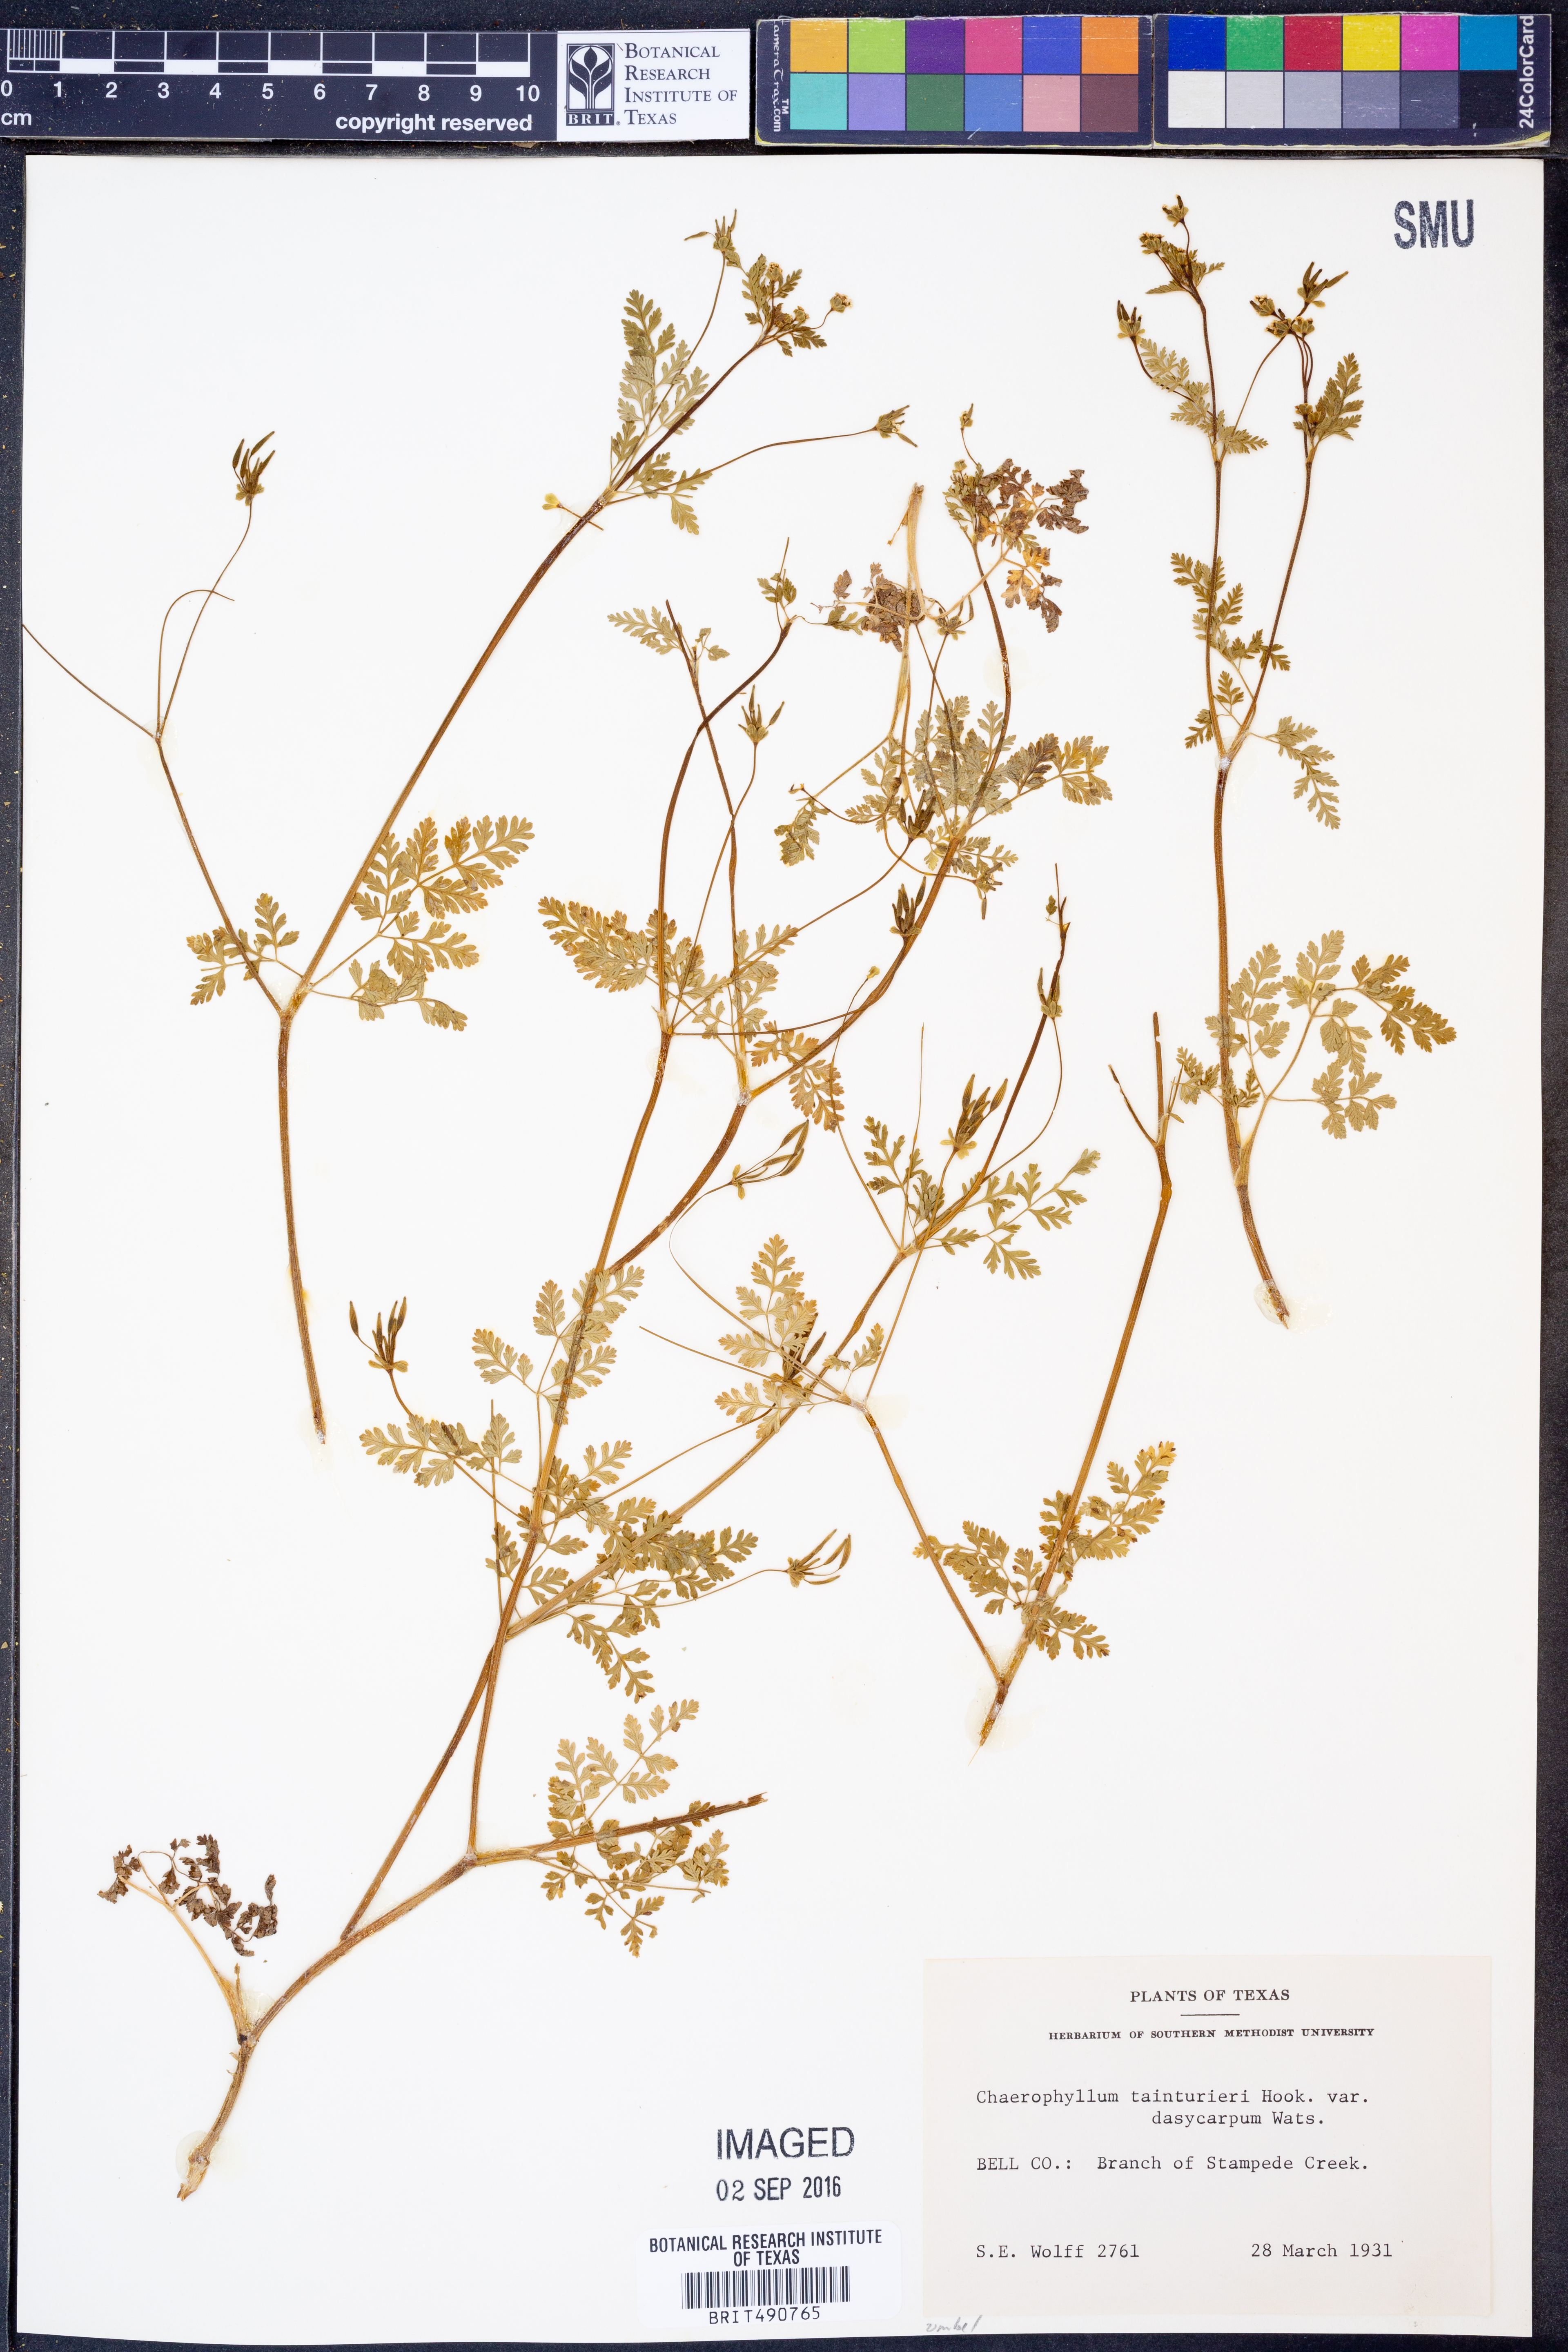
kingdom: Plantae
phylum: Tracheophyta
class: Magnoliopsida
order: Apiales
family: Apiaceae
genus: Chaerophyllum
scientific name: Chaerophyllum dasycarpum
